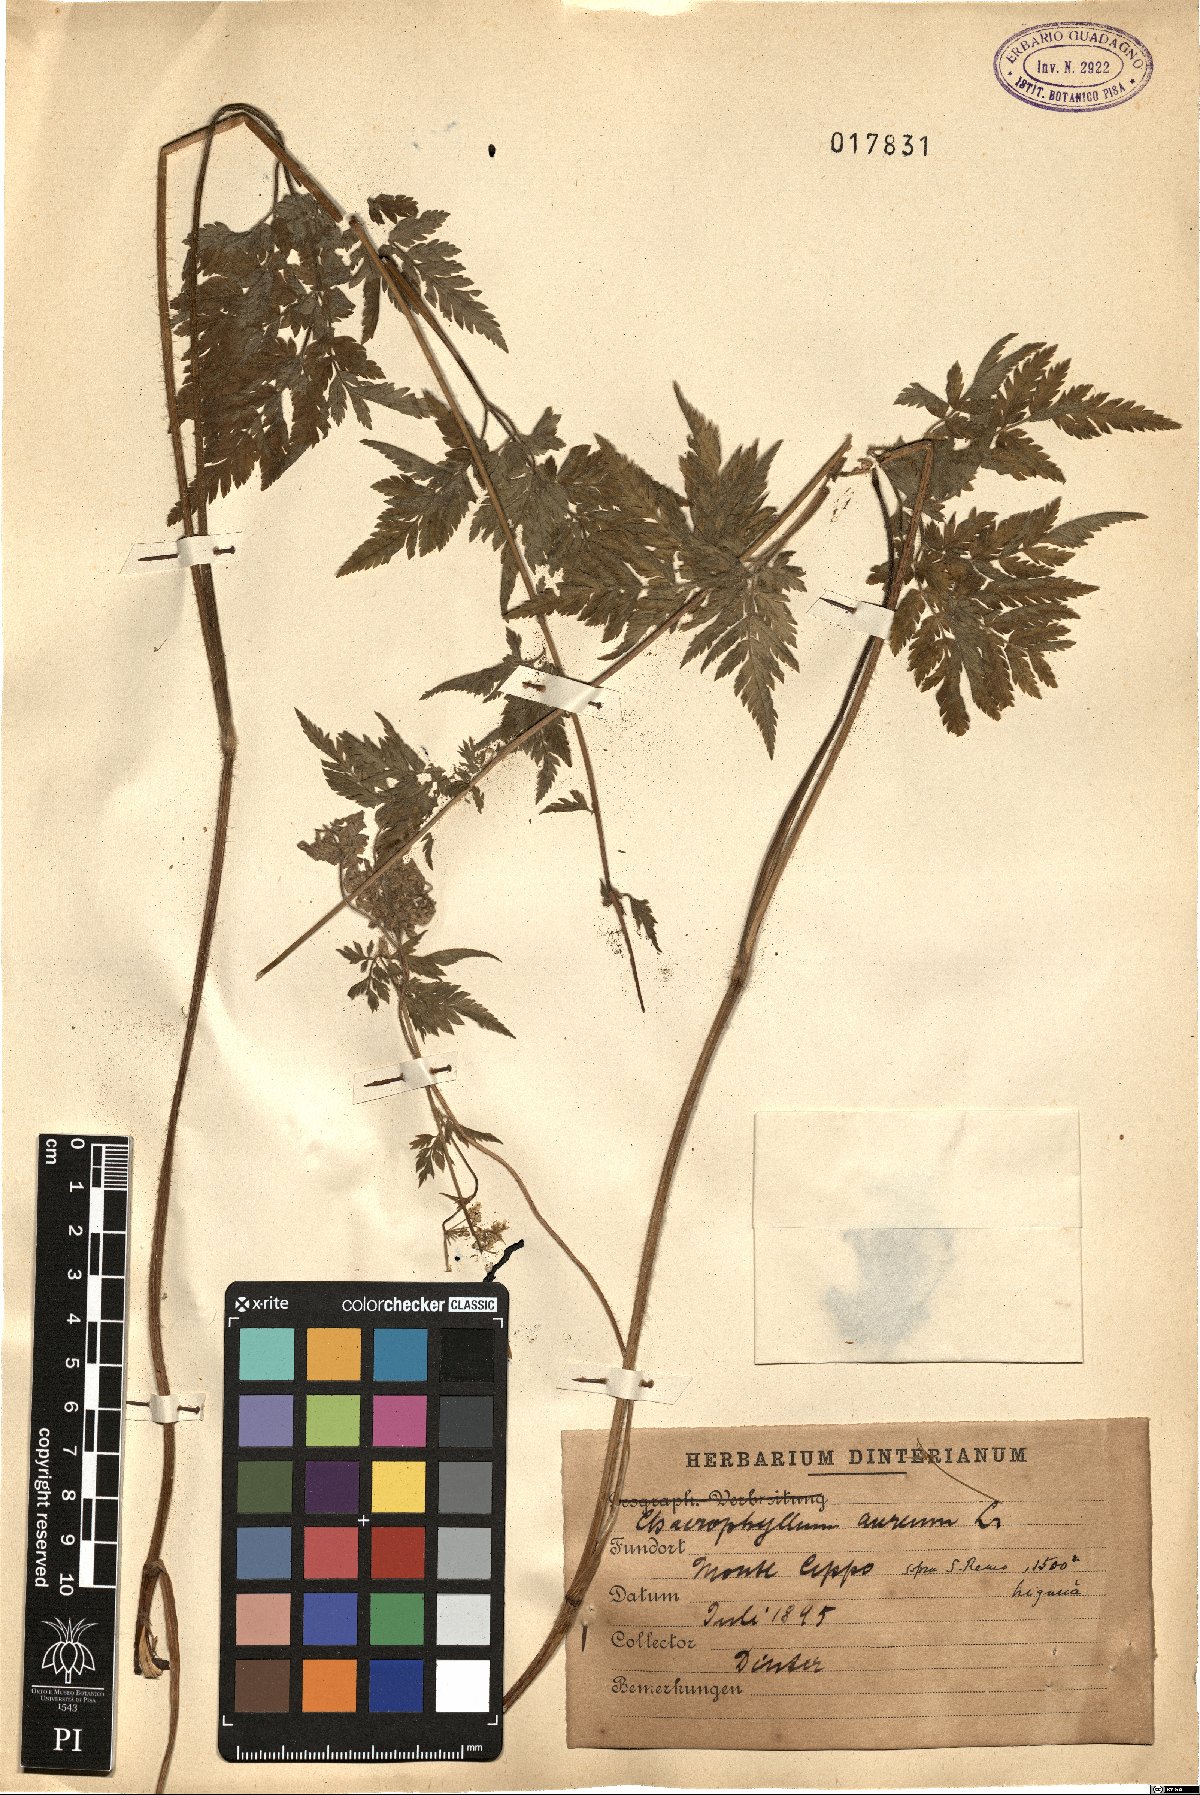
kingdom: Plantae
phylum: Tracheophyta
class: Magnoliopsida
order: Apiales
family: Apiaceae
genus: Chaerophyllum
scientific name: Chaerophyllum aureum
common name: Golden chervil
